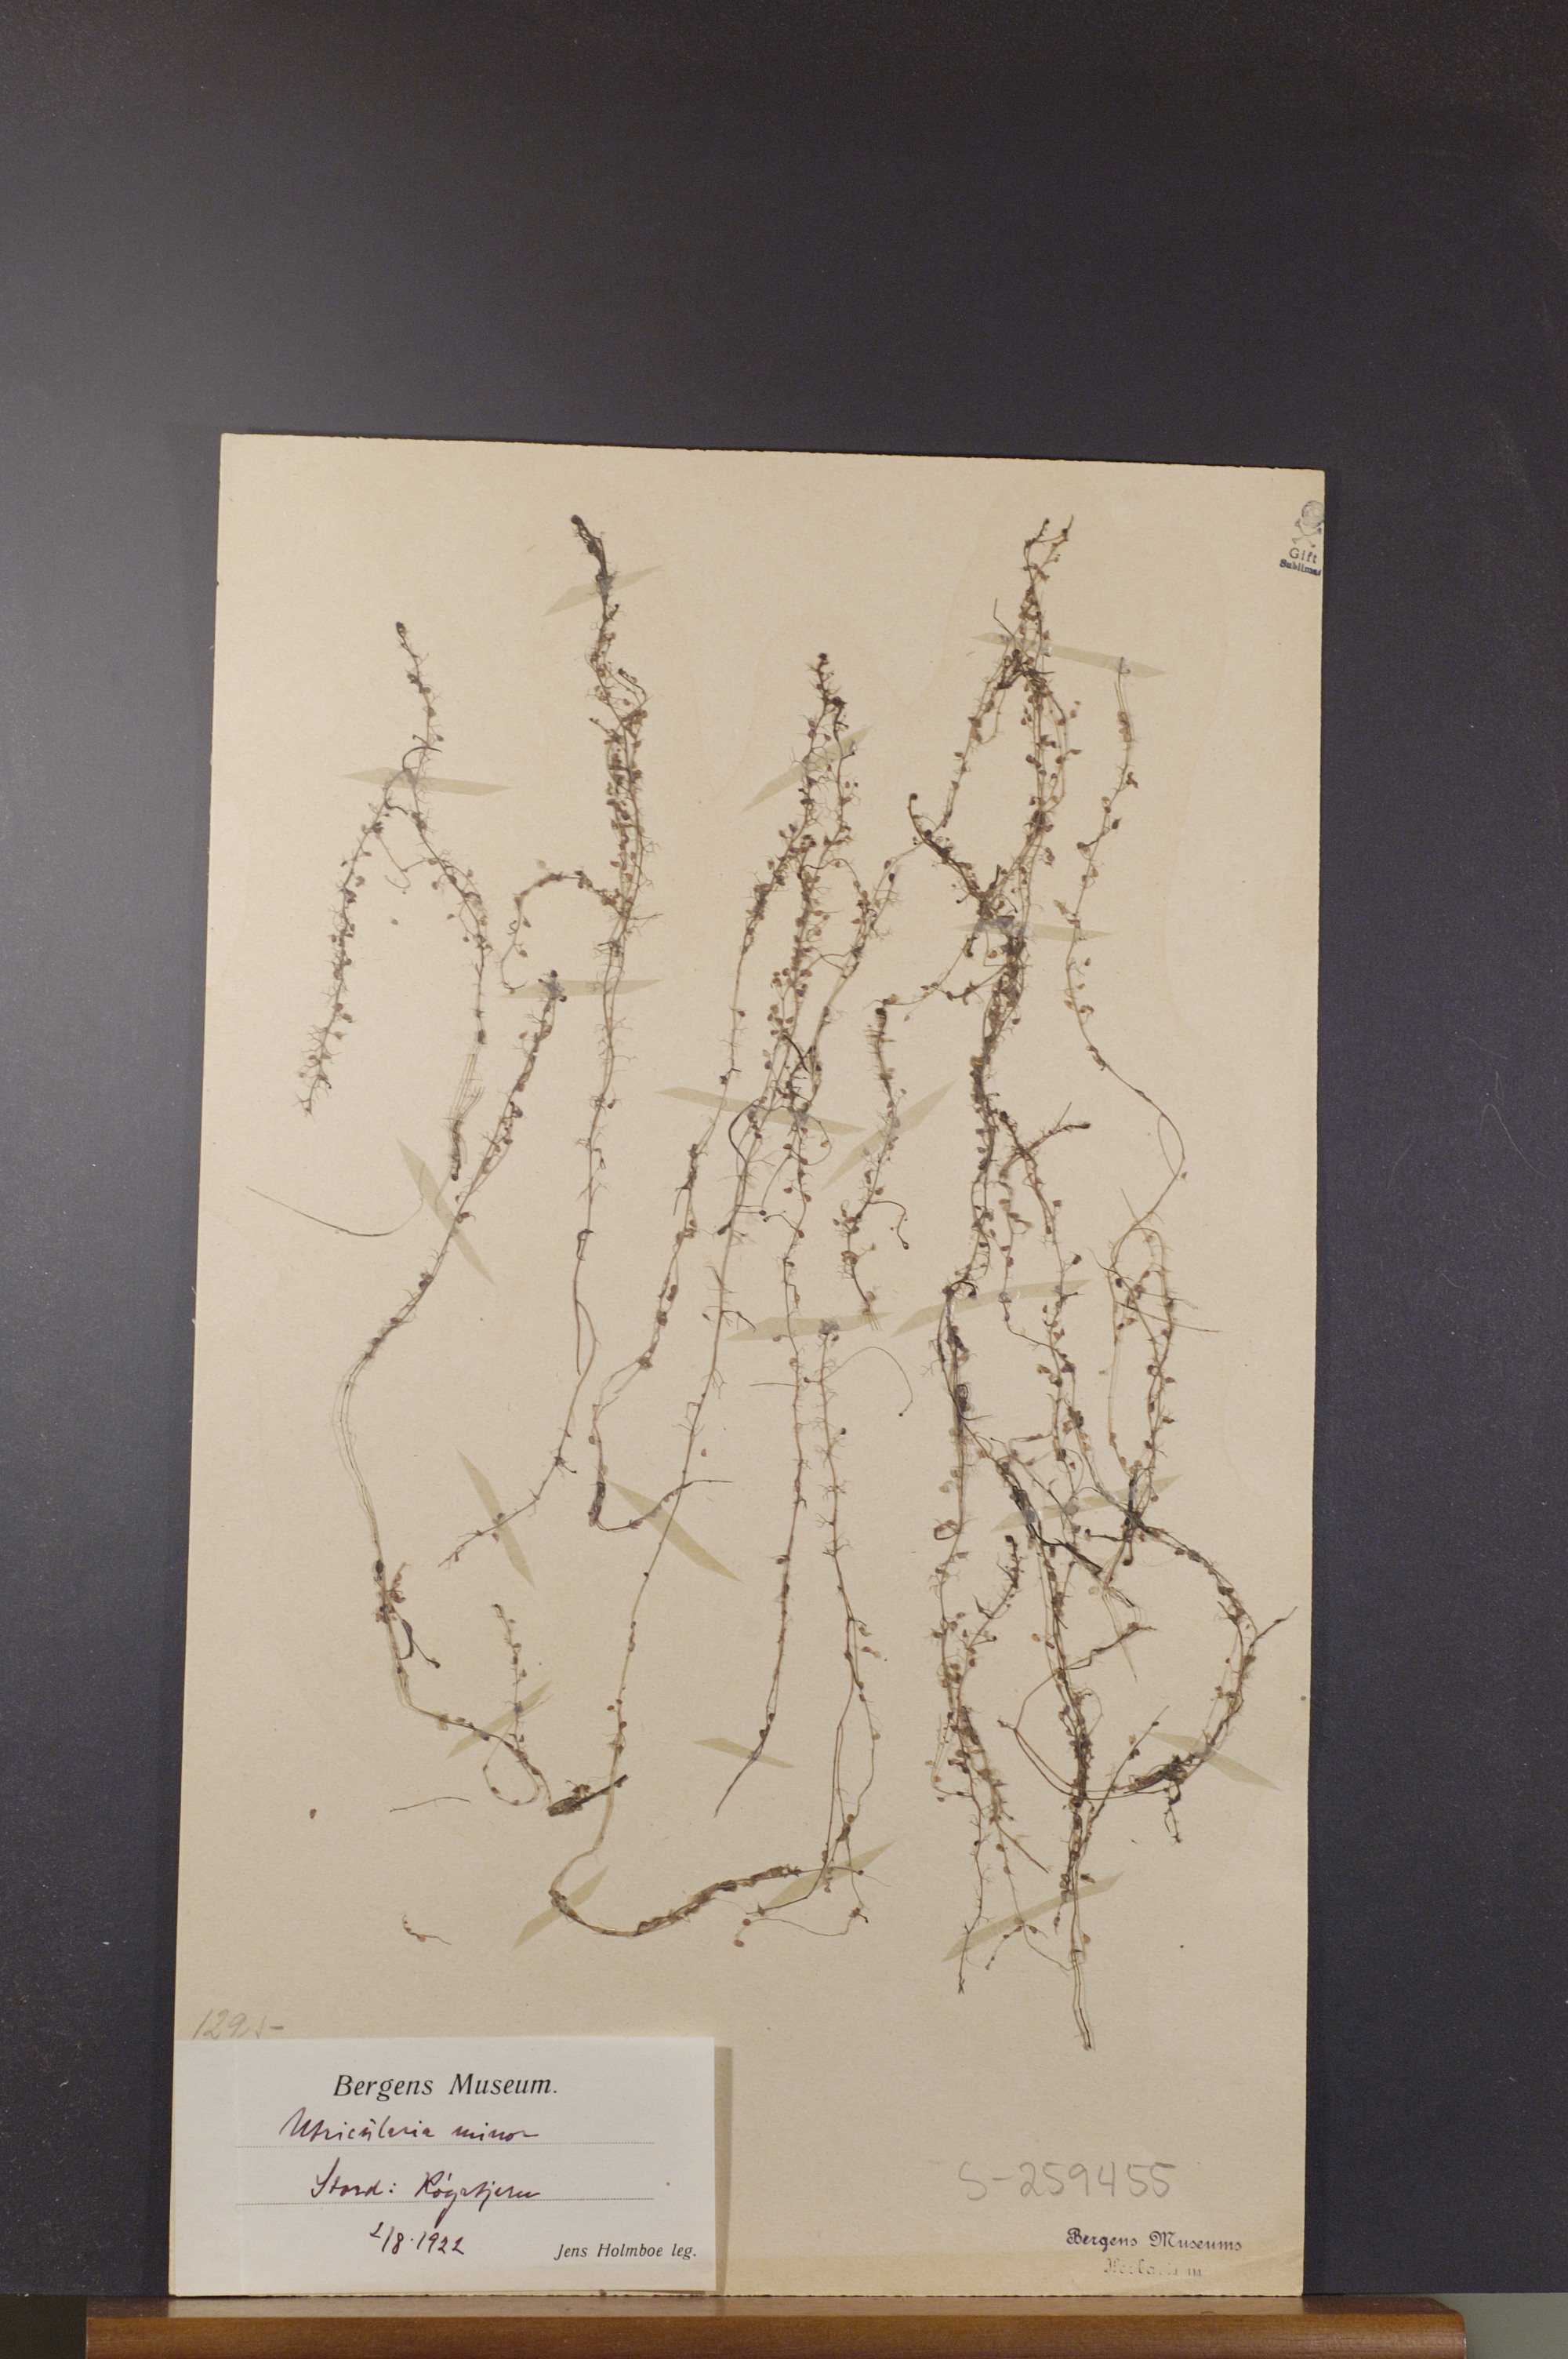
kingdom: Plantae
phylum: Tracheophyta
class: Magnoliopsida
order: Lamiales
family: Lentibulariaceae
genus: Utricularia
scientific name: Utricularia minor
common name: Lesser bladderwort
